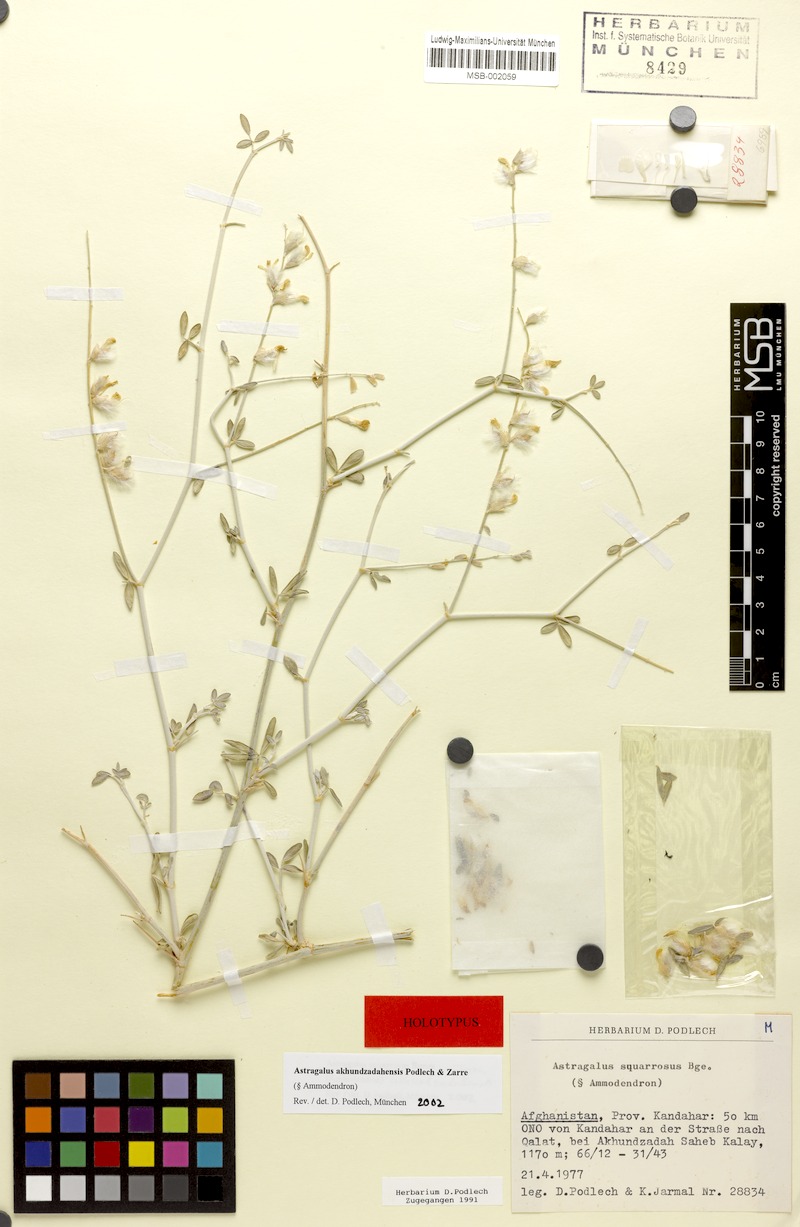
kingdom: Plantae
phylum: Tracheophyta
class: Magnoliopsida
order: Fabales
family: Fabaceae
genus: Astragalus
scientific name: Astragalus akhundzadahensis
